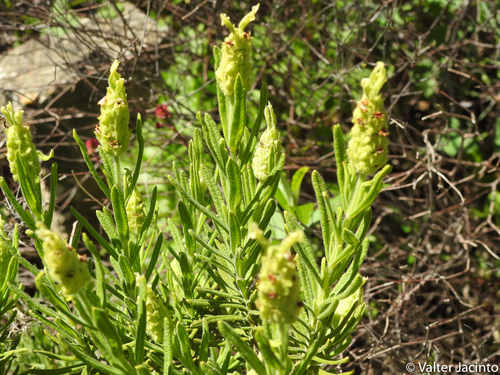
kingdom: Plantae
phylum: Tracheophyta
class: Magnoliopsida
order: Lamiales
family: Lamiaceae
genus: Lavandula
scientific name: Lavandula viridis
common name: Green spanish lavender
